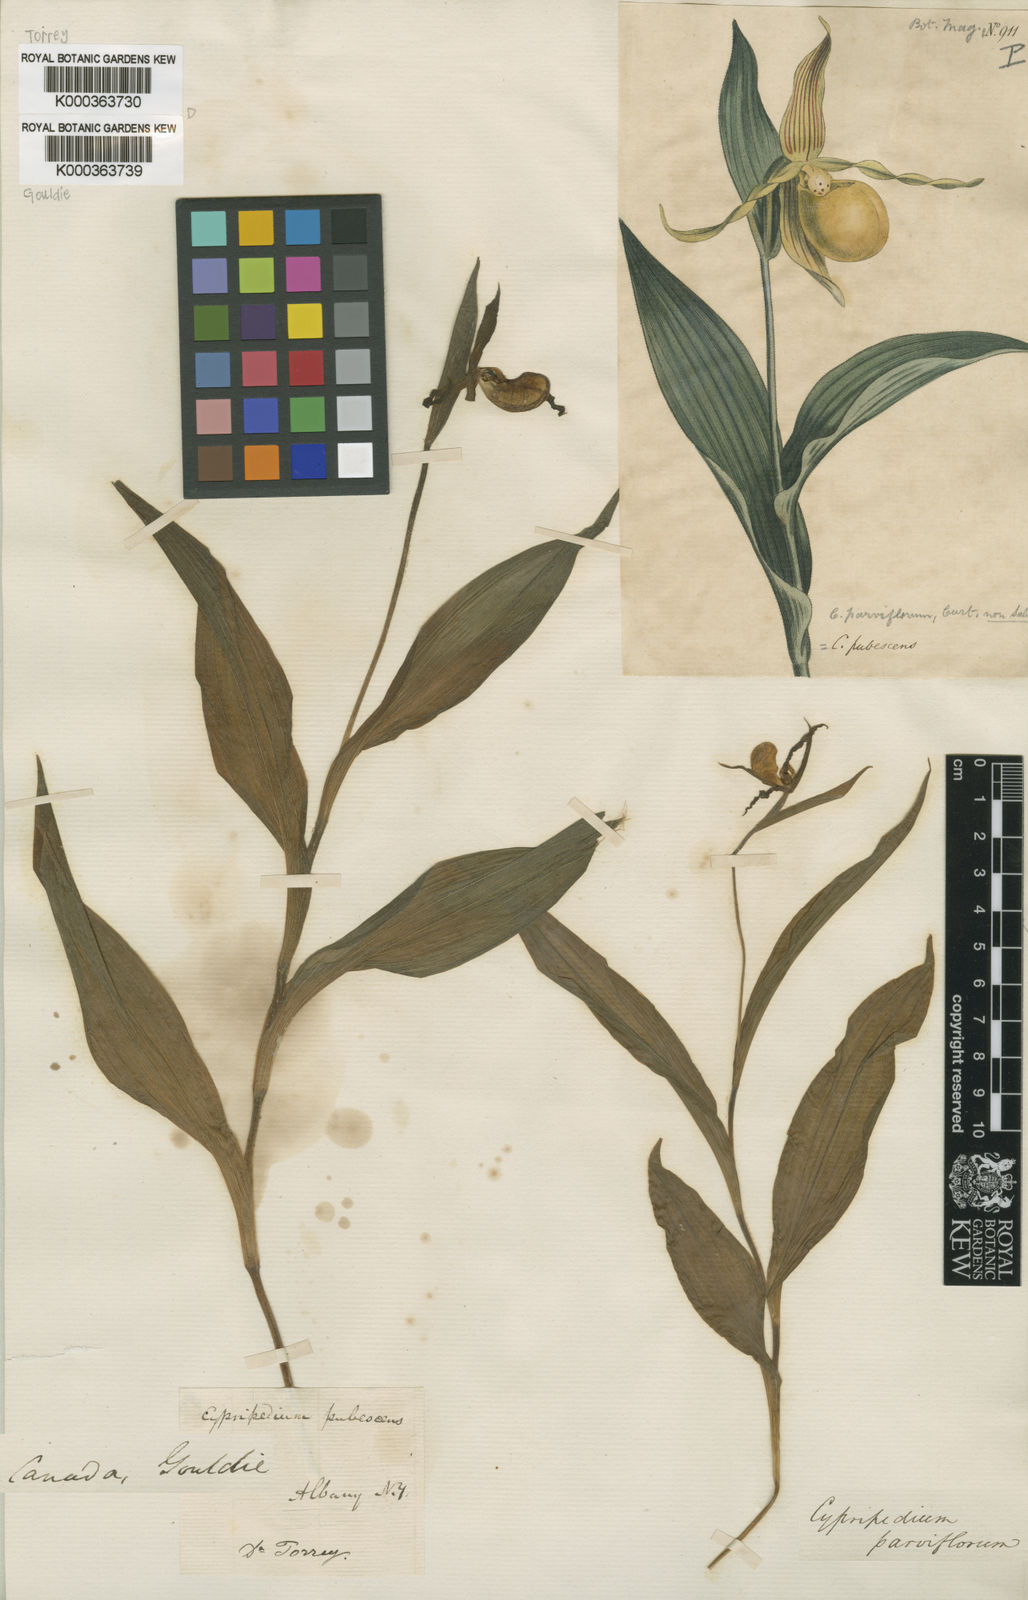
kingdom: Plantae
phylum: Tracheophyta
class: Liliopsida
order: Asparagales
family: Orchidaceae
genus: Cypripedium
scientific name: Cypripedium parviflorum
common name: American yellow lady's-slipper
